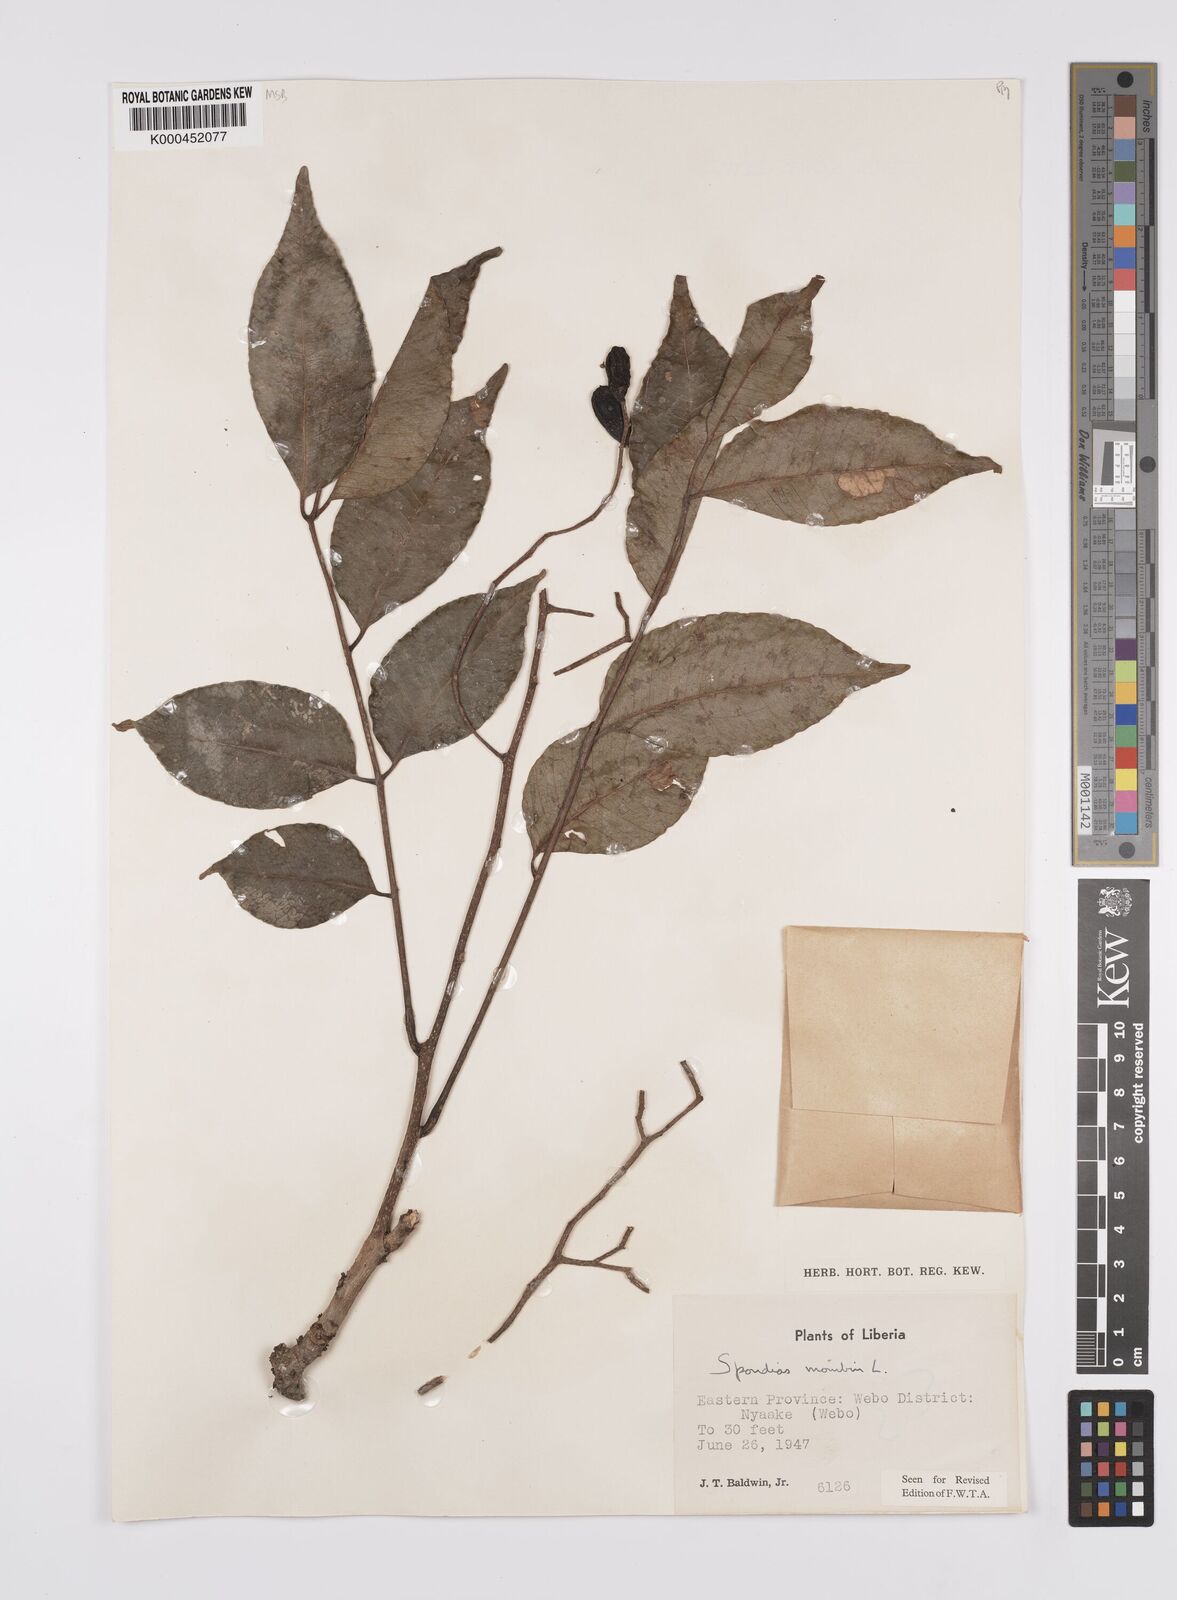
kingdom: Plantae
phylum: Tracheophyta
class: Magnoliopsida
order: Sapindales
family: Anacardiaceae
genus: Spondias
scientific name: Spondias mombin
